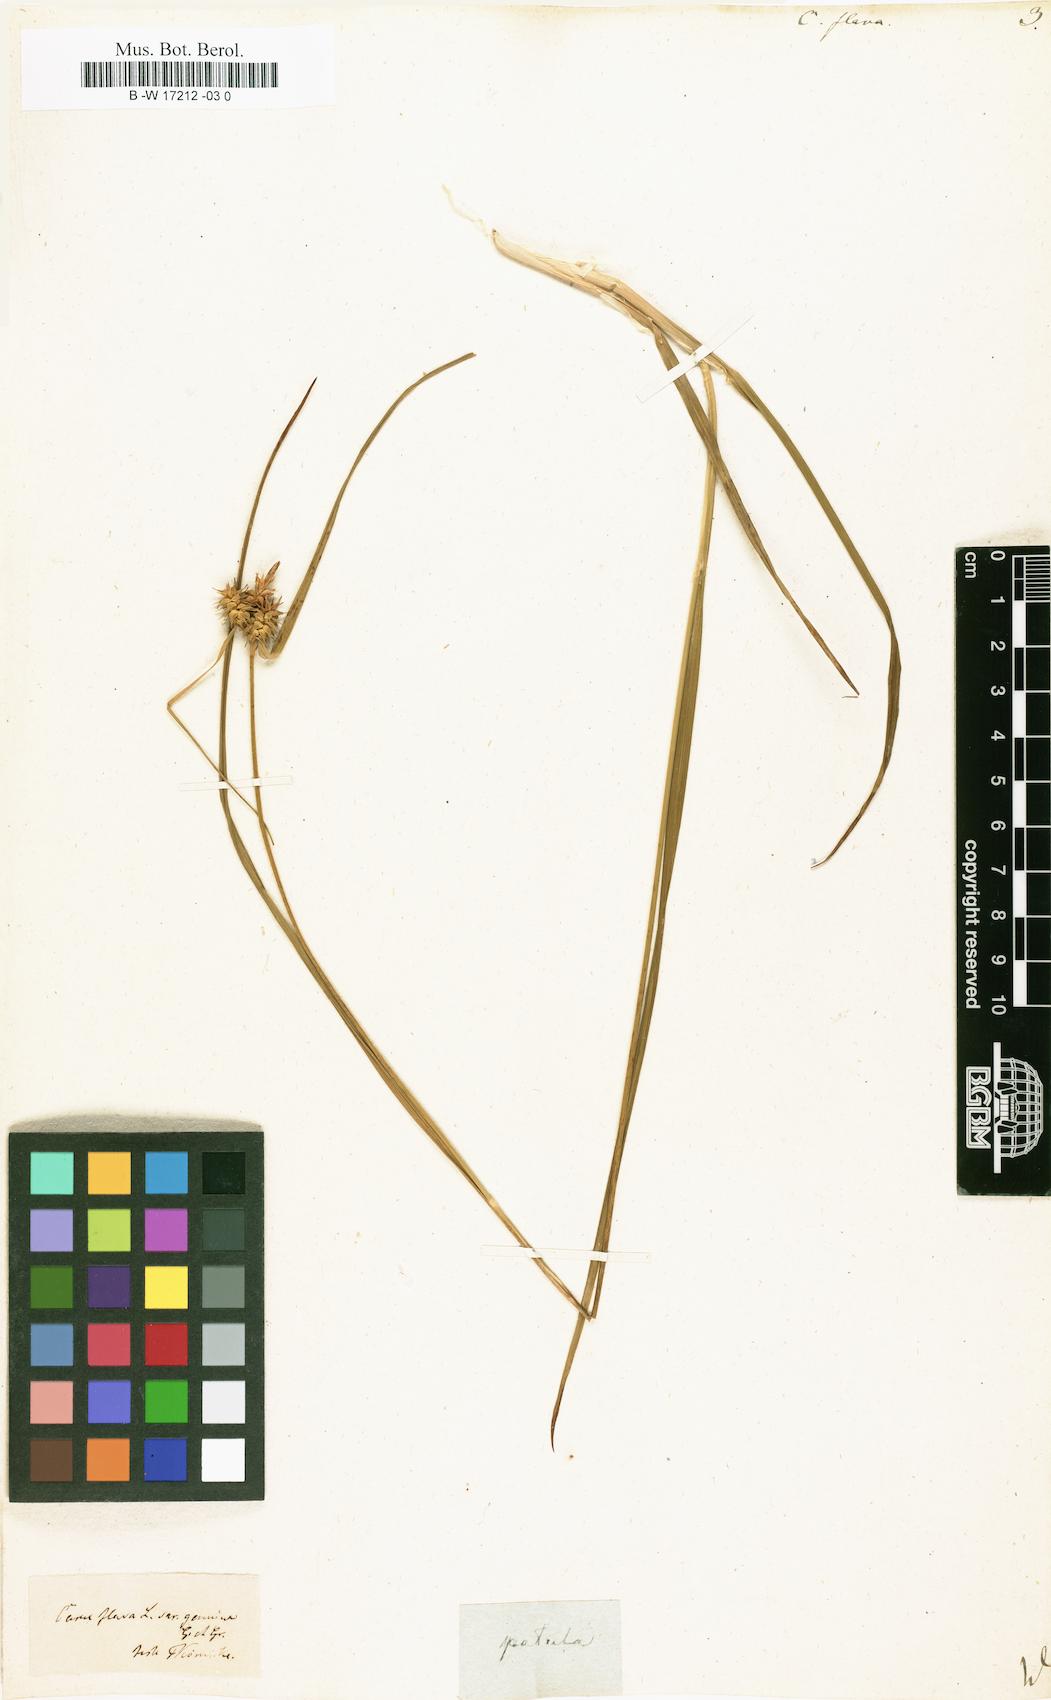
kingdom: Plantae
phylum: Tracheophyta
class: Liliopsida
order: Poales
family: Cyperaceae
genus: Carex
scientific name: Carex flava
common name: Large yellow-sedge
